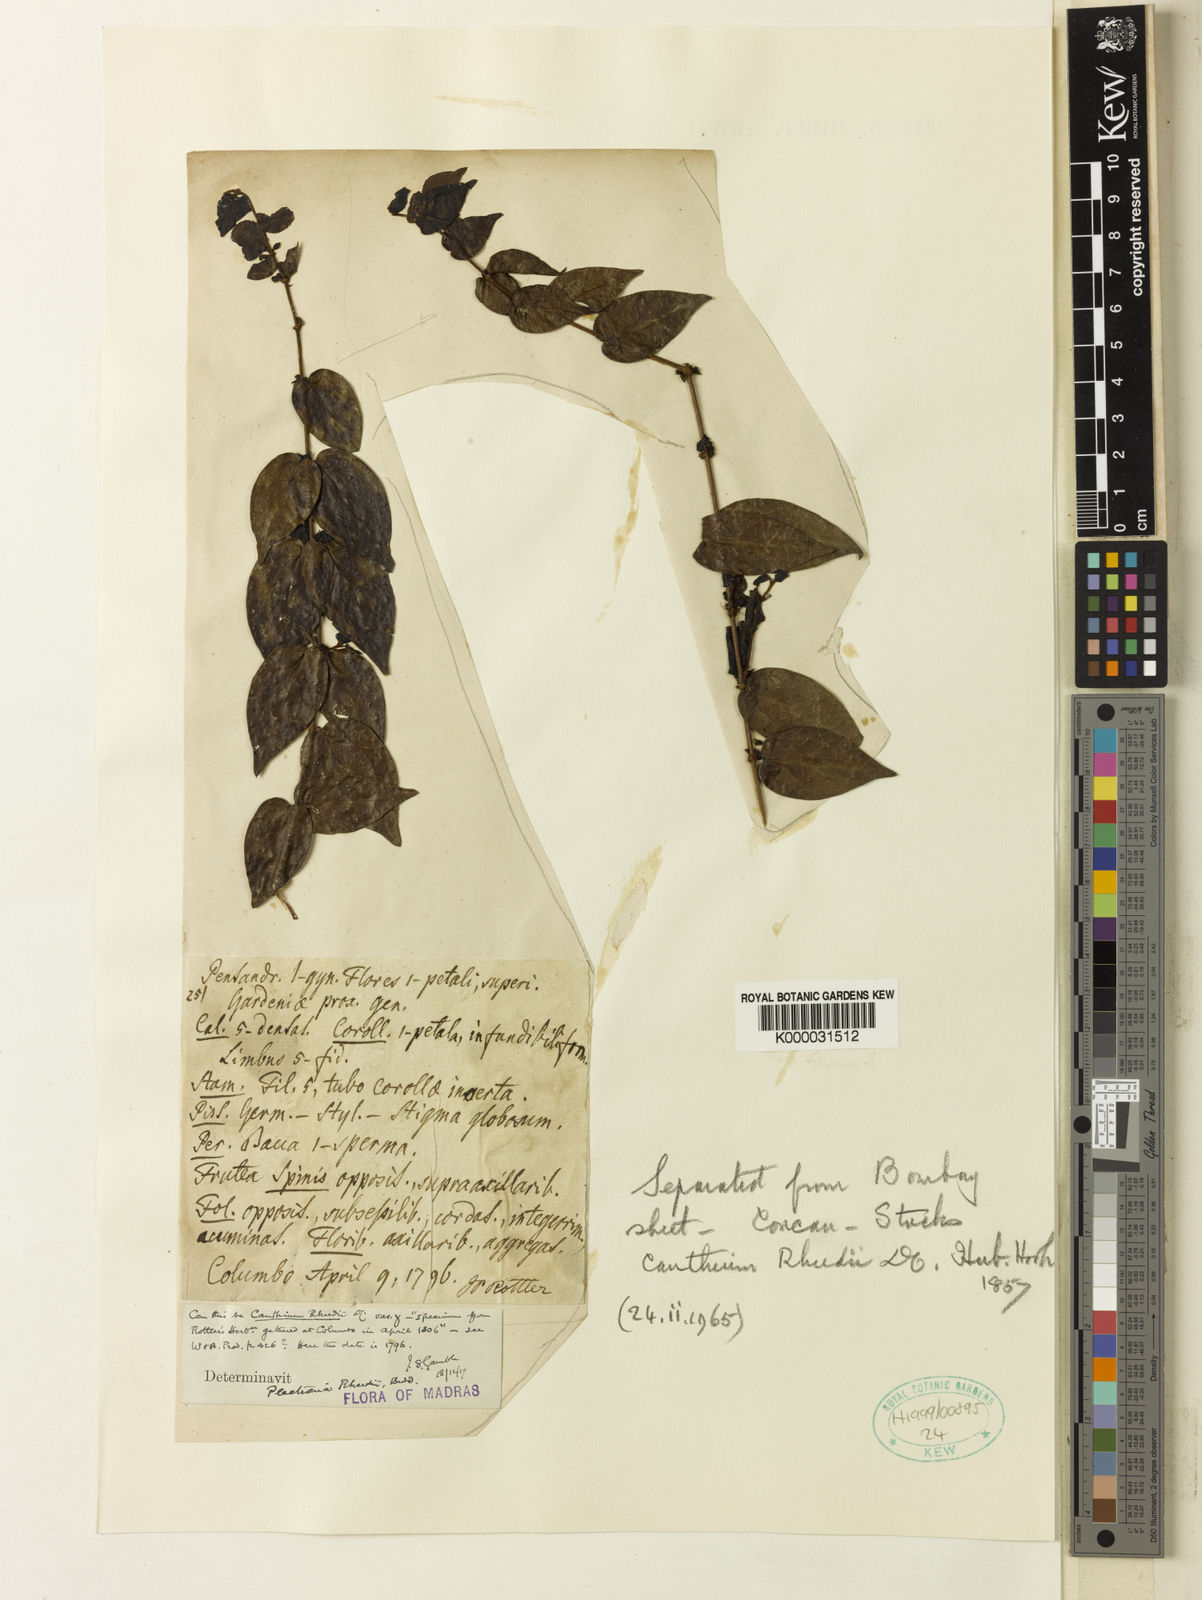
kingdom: Plantae
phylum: Tracheophyta
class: Magnoliopsida
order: Gentianales
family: Rubiaceae
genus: Canthium
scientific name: Canthium rheedei
